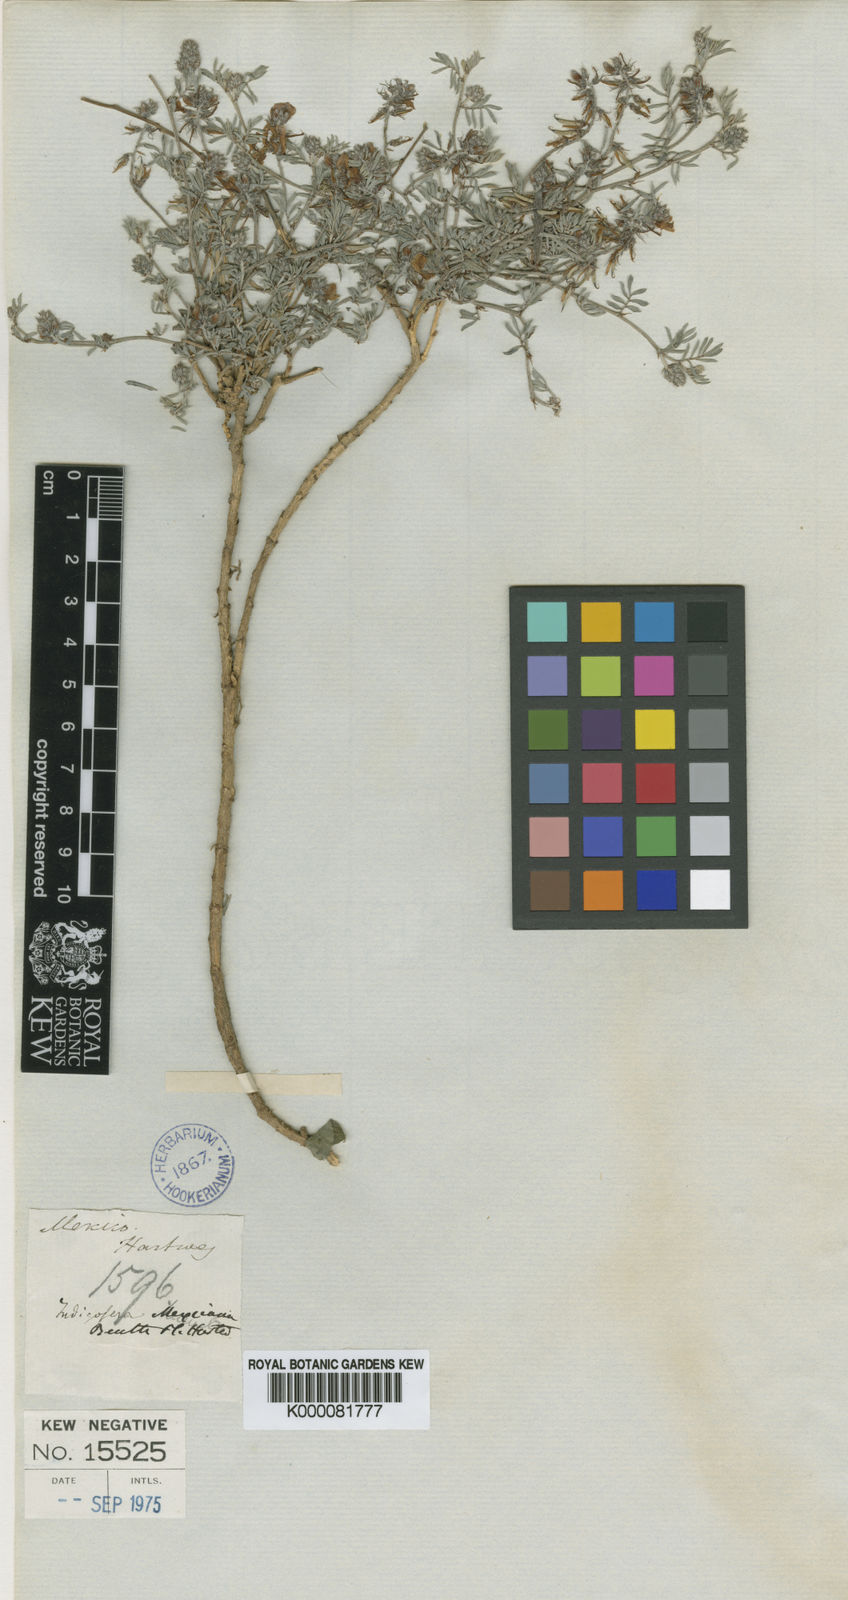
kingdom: Plantae
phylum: Tracheophyta
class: Magnoliopsida
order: Fabales
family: Fabaceae
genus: Indigofera
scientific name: Indigofera miniata
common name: Coast indigo
